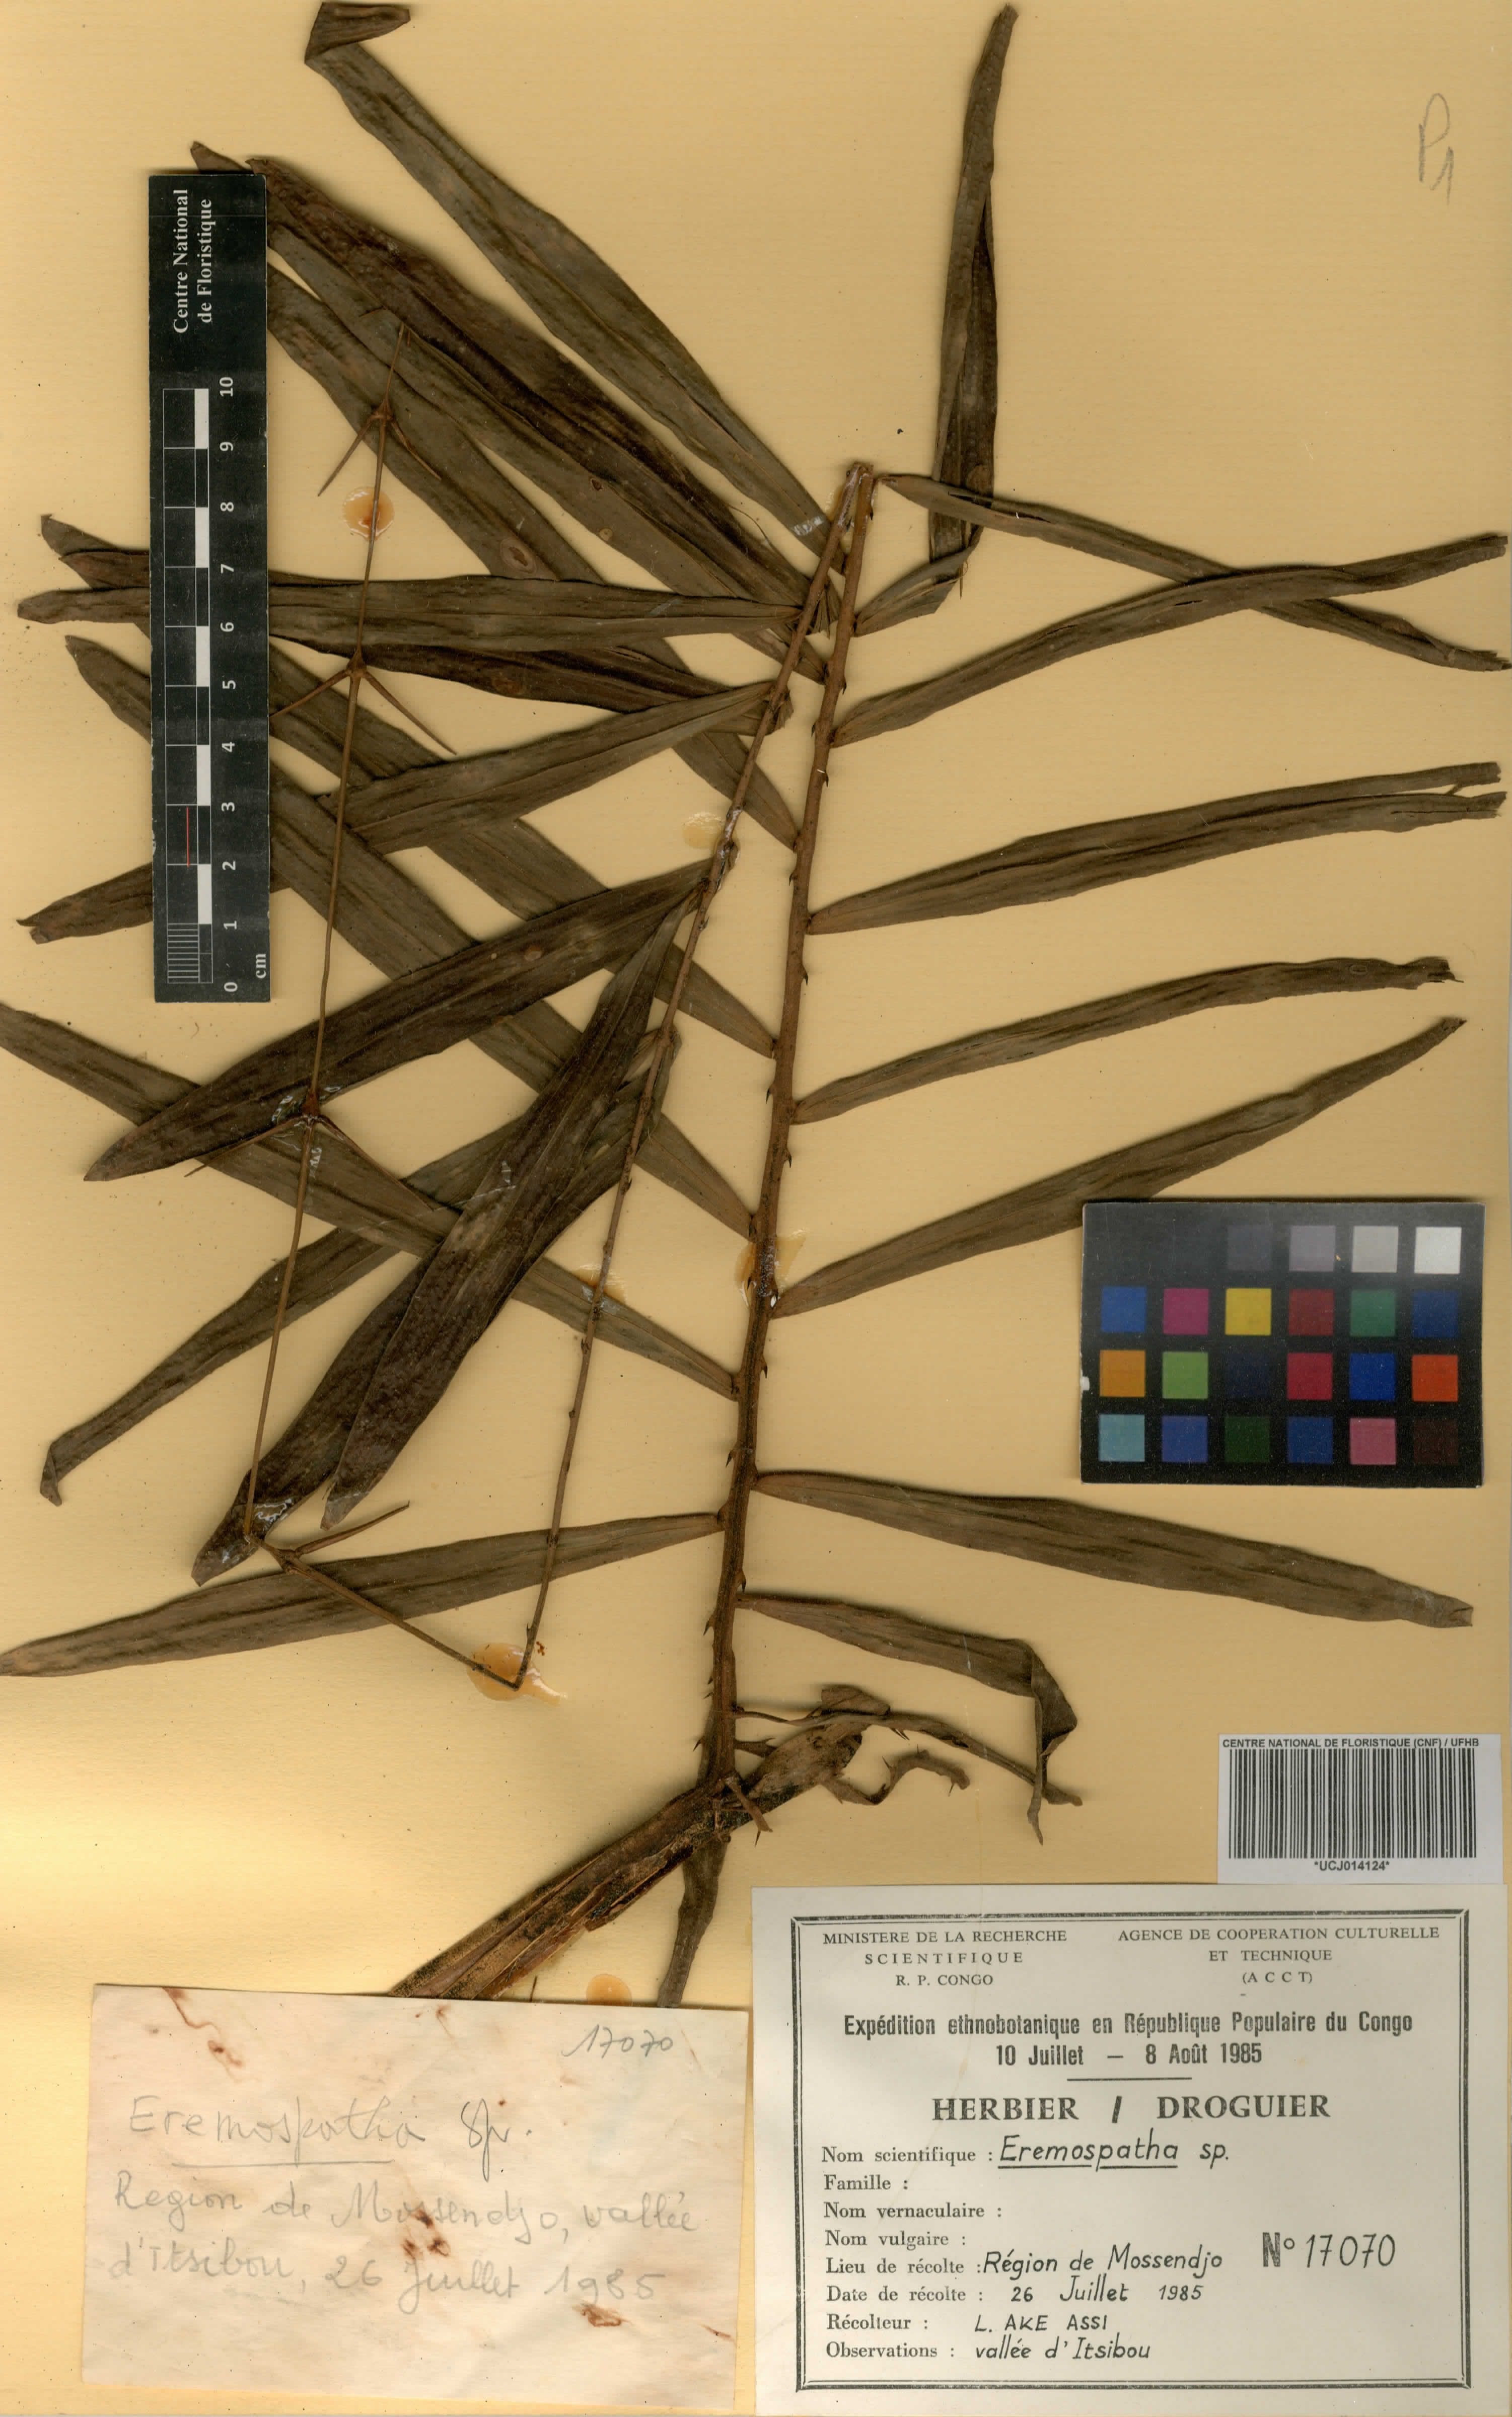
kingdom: Plantae
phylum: Tracheophyta
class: Liliopsida
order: Arecales
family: Arecaceae
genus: Eremospatha
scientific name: Eremospatha
